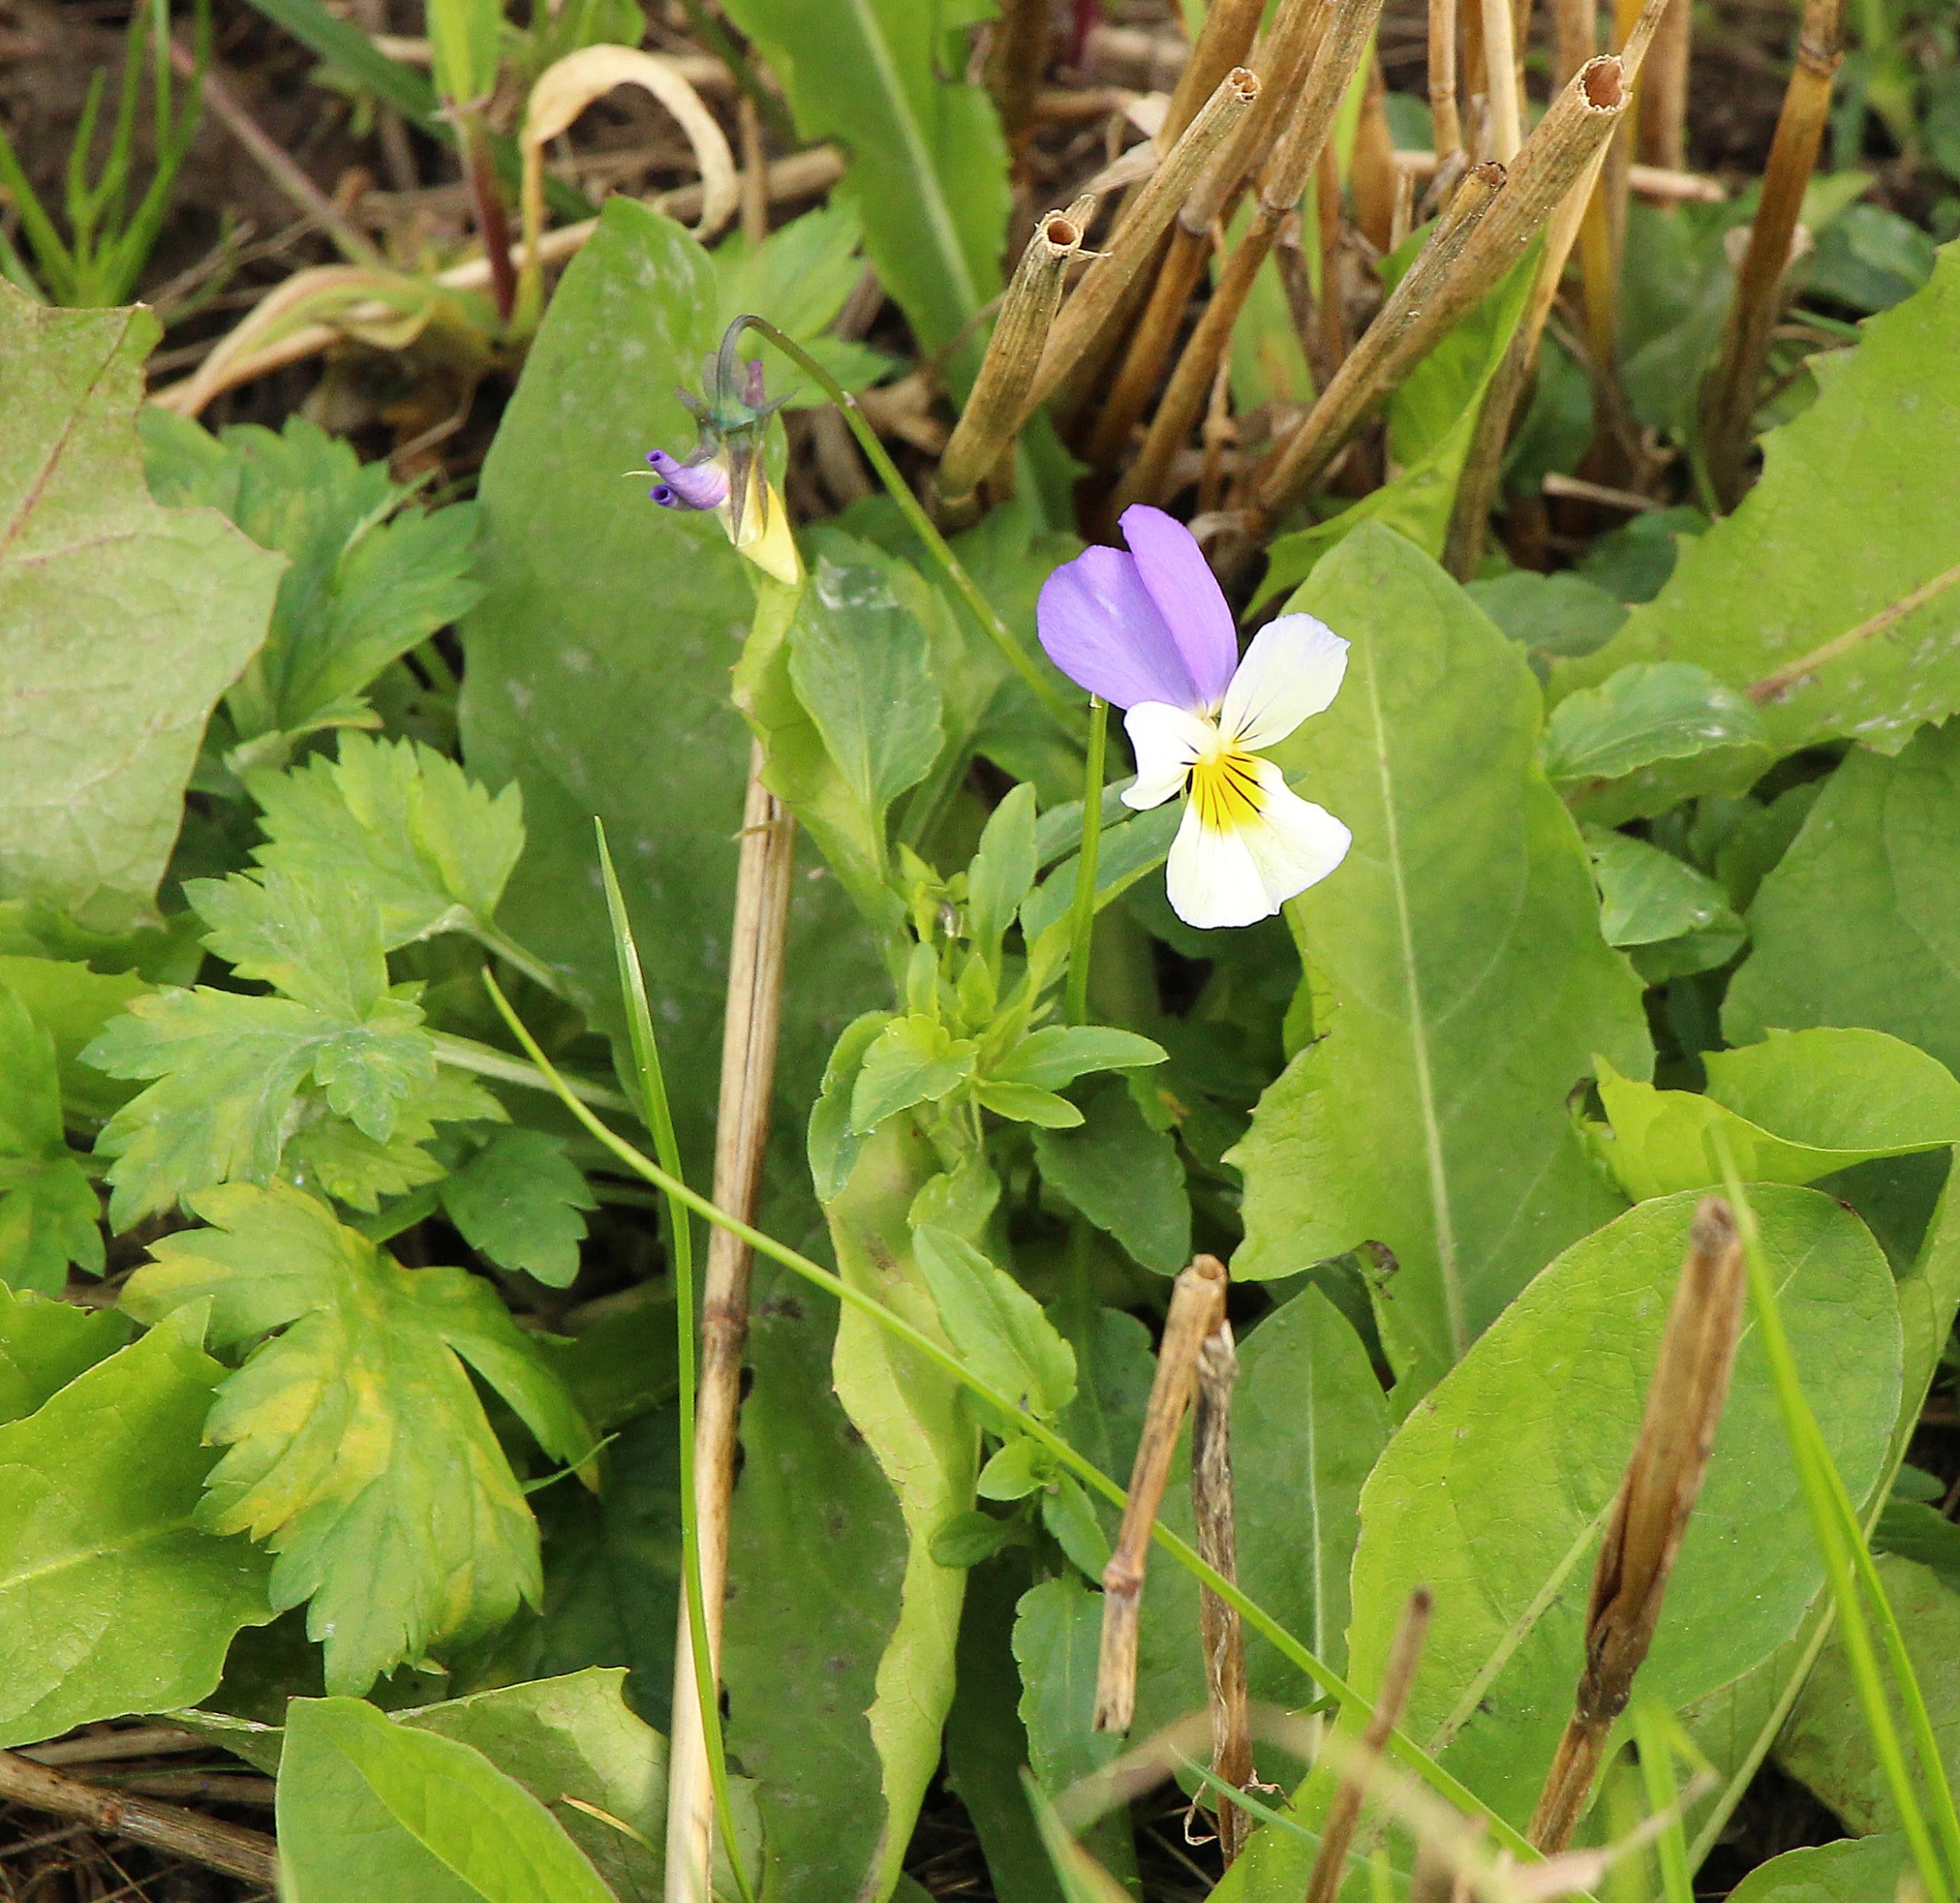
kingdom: Plantae
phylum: Tracheophyta
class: Magnoliopsida
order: Malpighiales
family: Violaceae
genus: Viola
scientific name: Viola tricolor
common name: Stedmoderblomst
